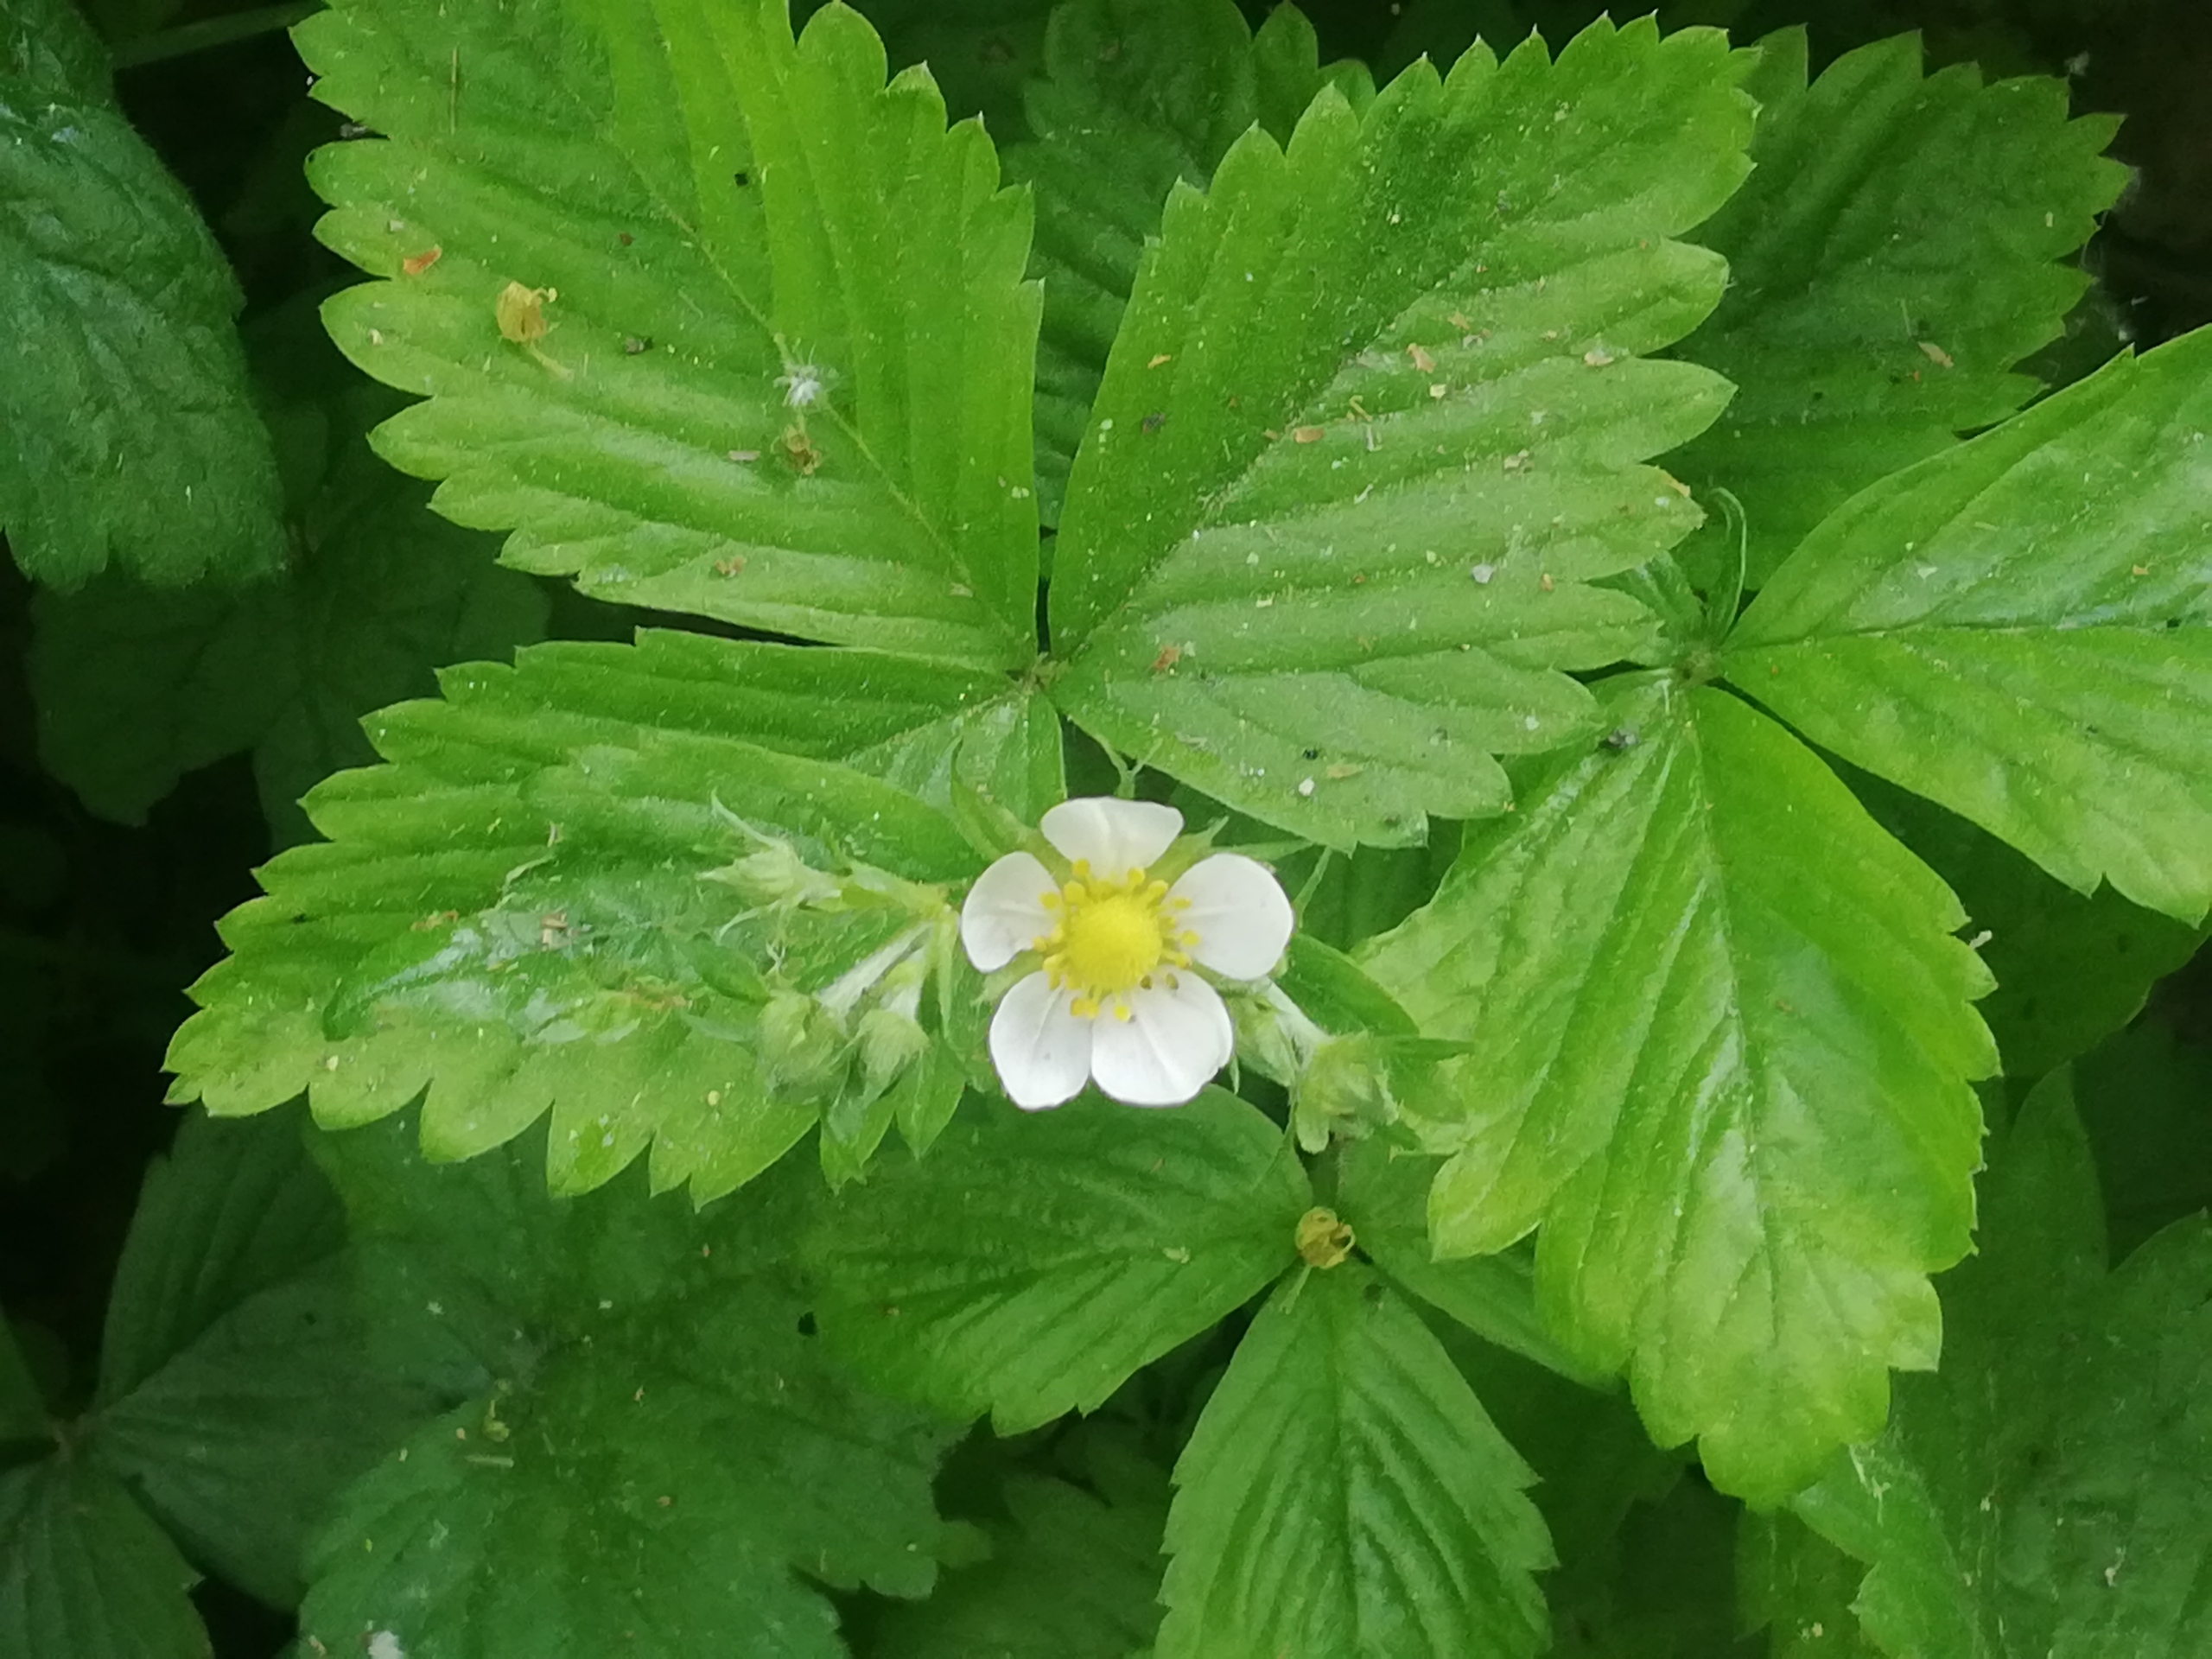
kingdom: Plantae
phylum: Tracheophyta
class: Magnoliopsida
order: Rosales
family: Rosaceae
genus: Fragaria
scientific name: Fragaria vesca
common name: Skov-jordbær
